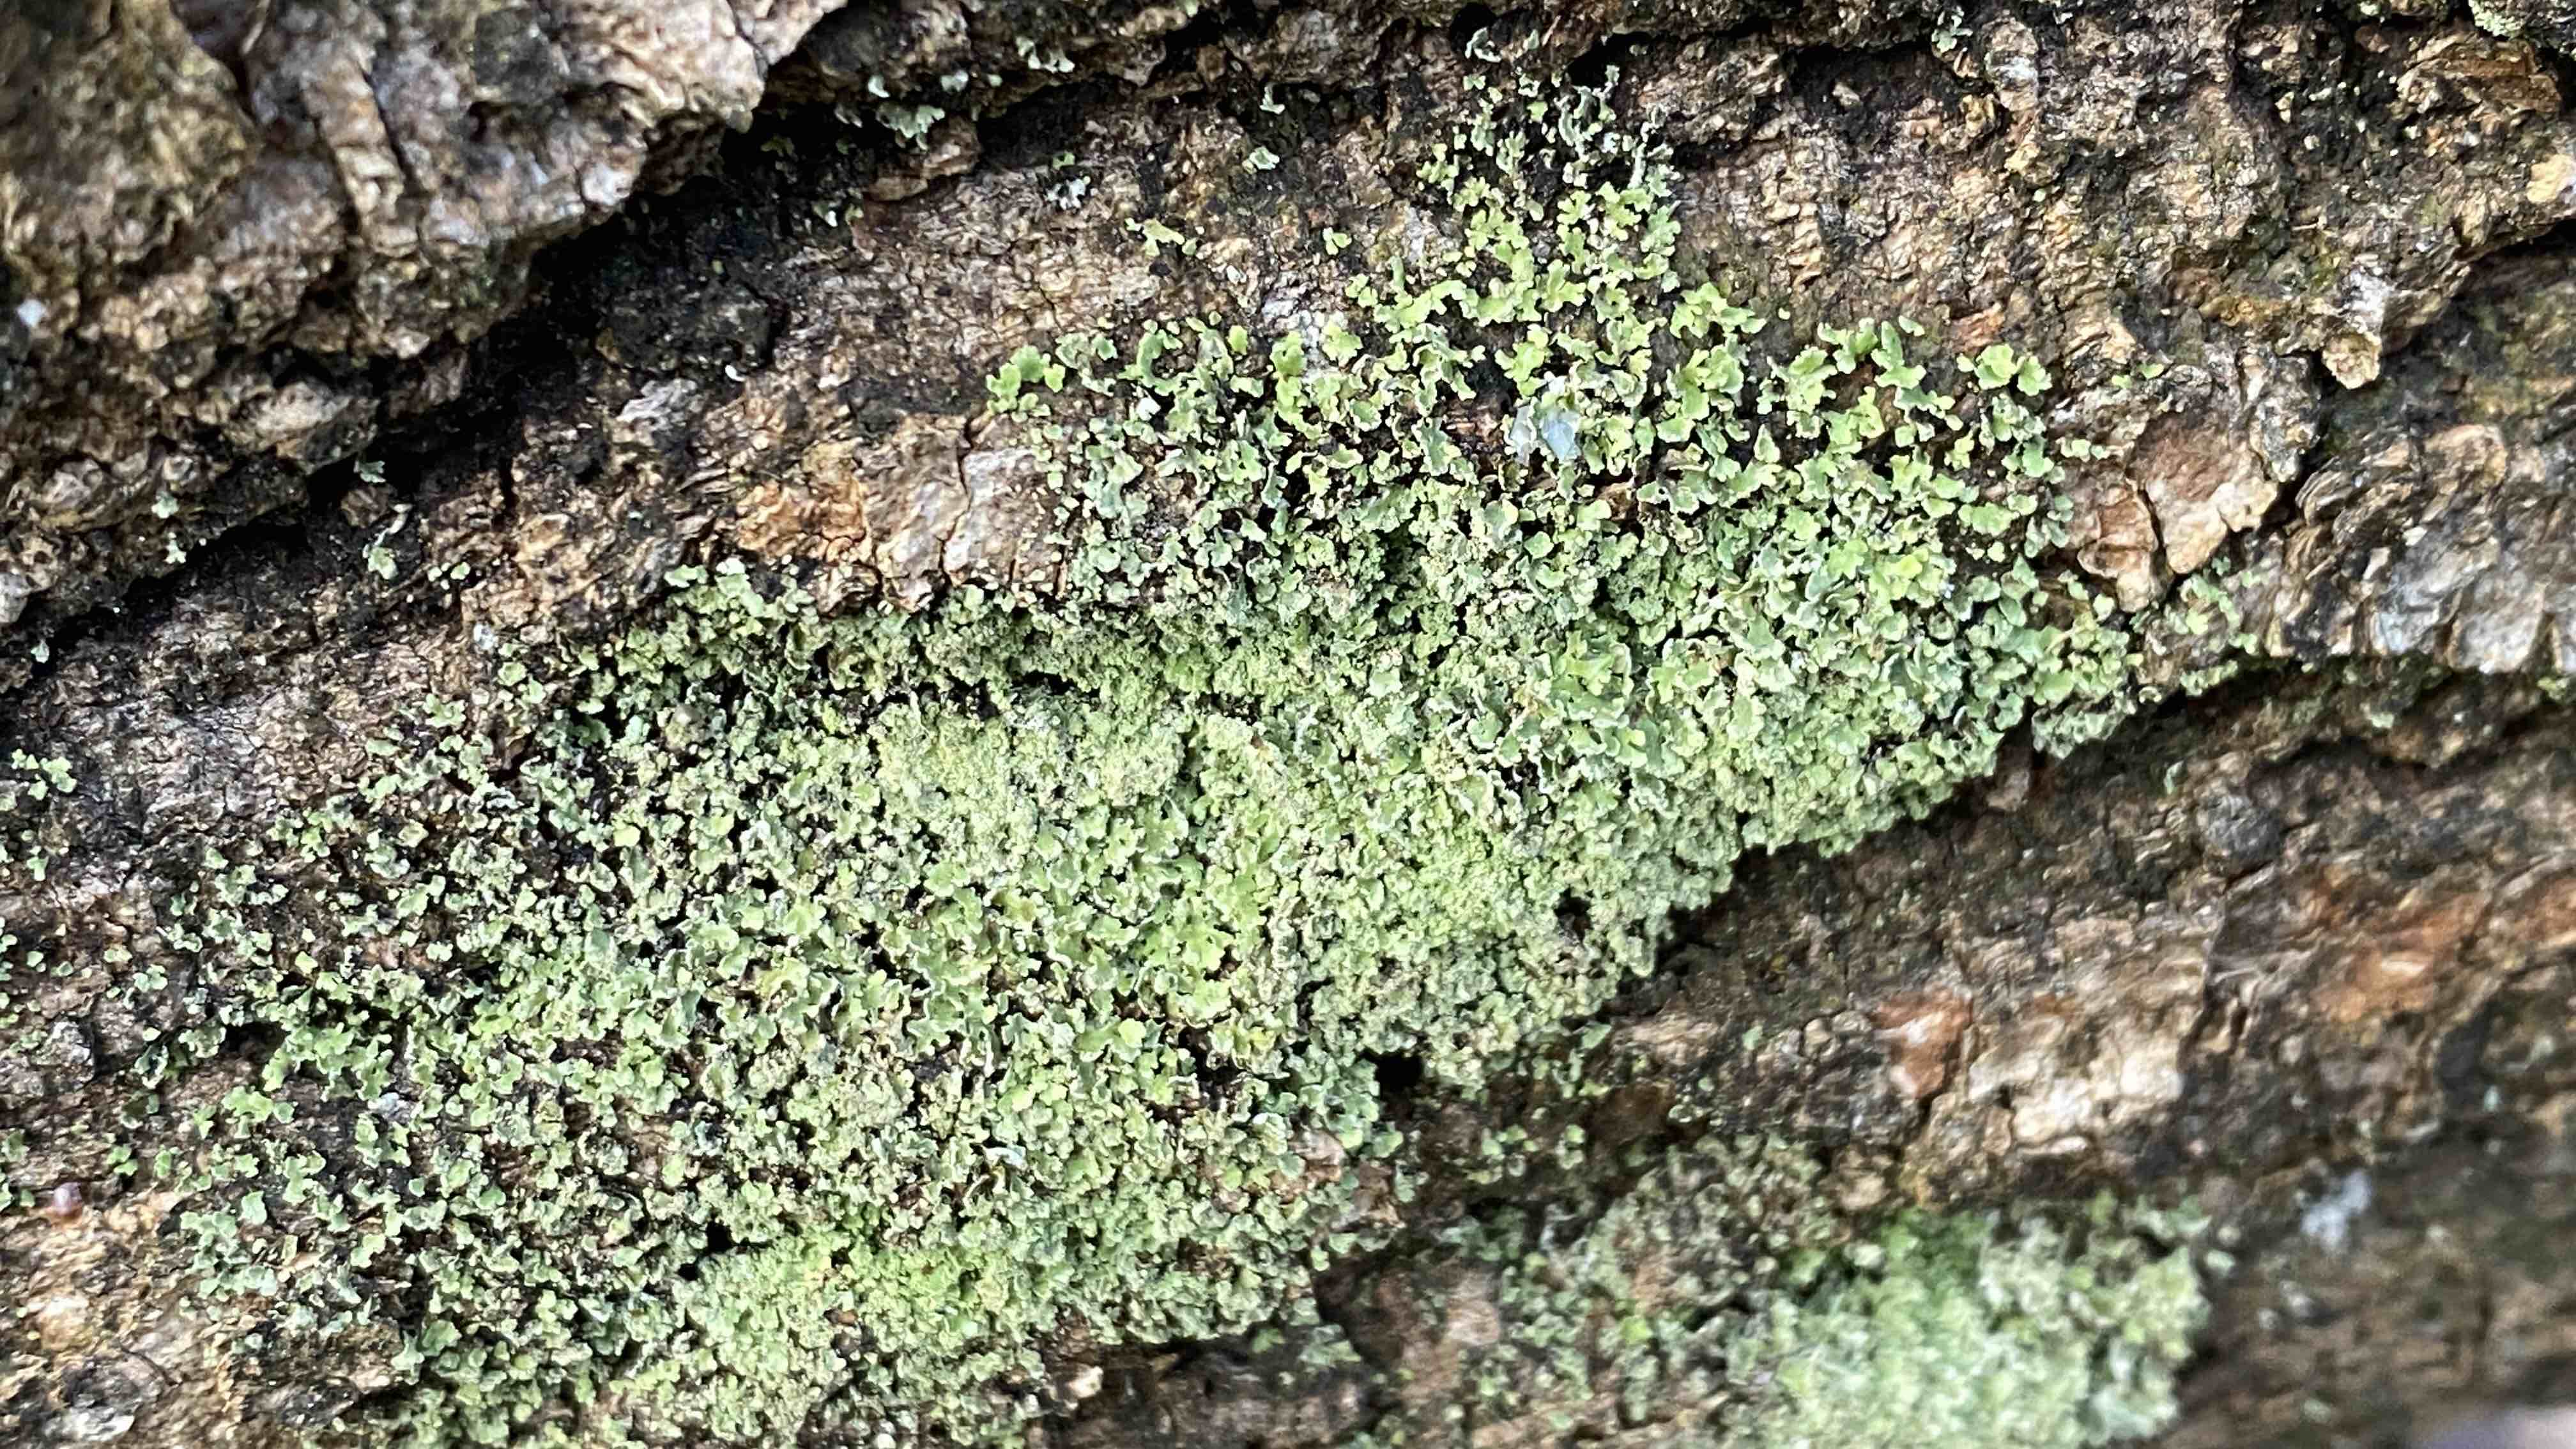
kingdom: Fungi
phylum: Ascomycota
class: Lecanoromycetes
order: Lecanorales
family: Cladoniaceae
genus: Cladonia
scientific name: Cladonia
